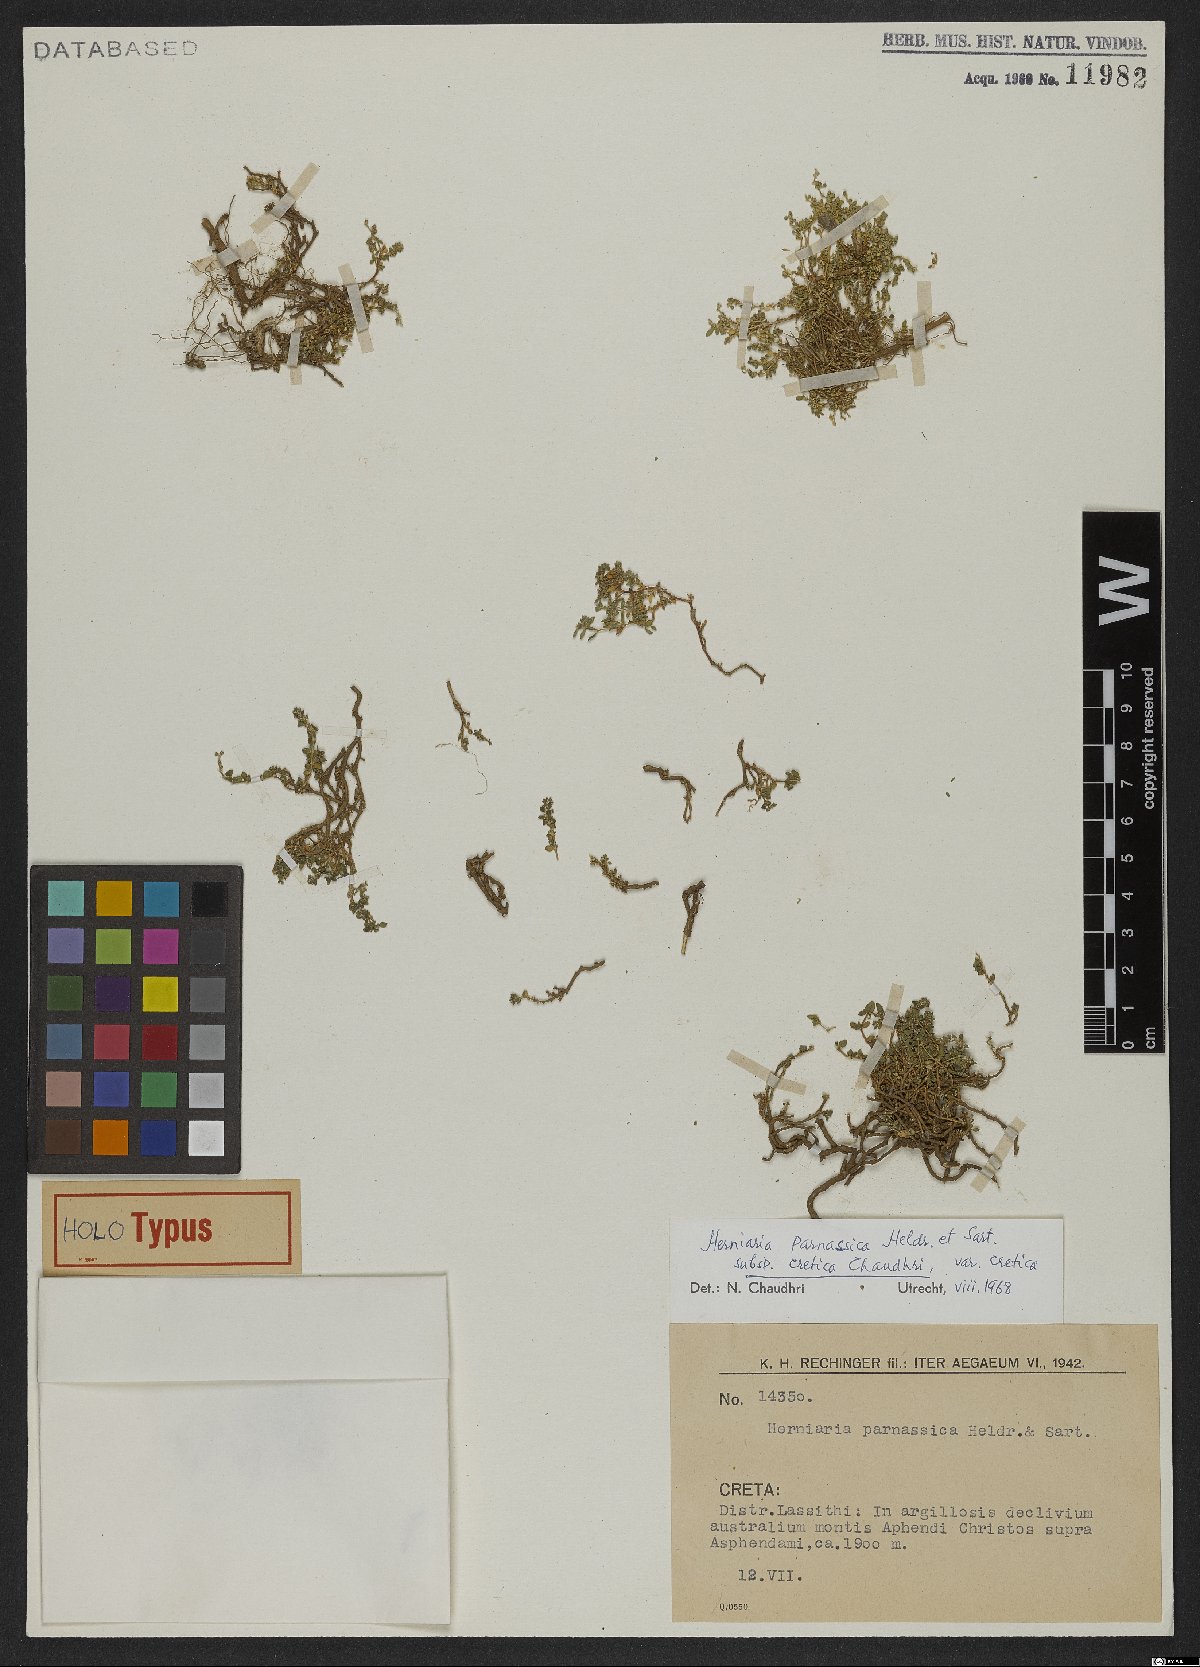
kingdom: Plantae
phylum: Tracheophyta
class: Magnoliopsida
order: Caryophyllales
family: Caryophyllaceae
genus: Herniaria
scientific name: Herniaria parnassica
